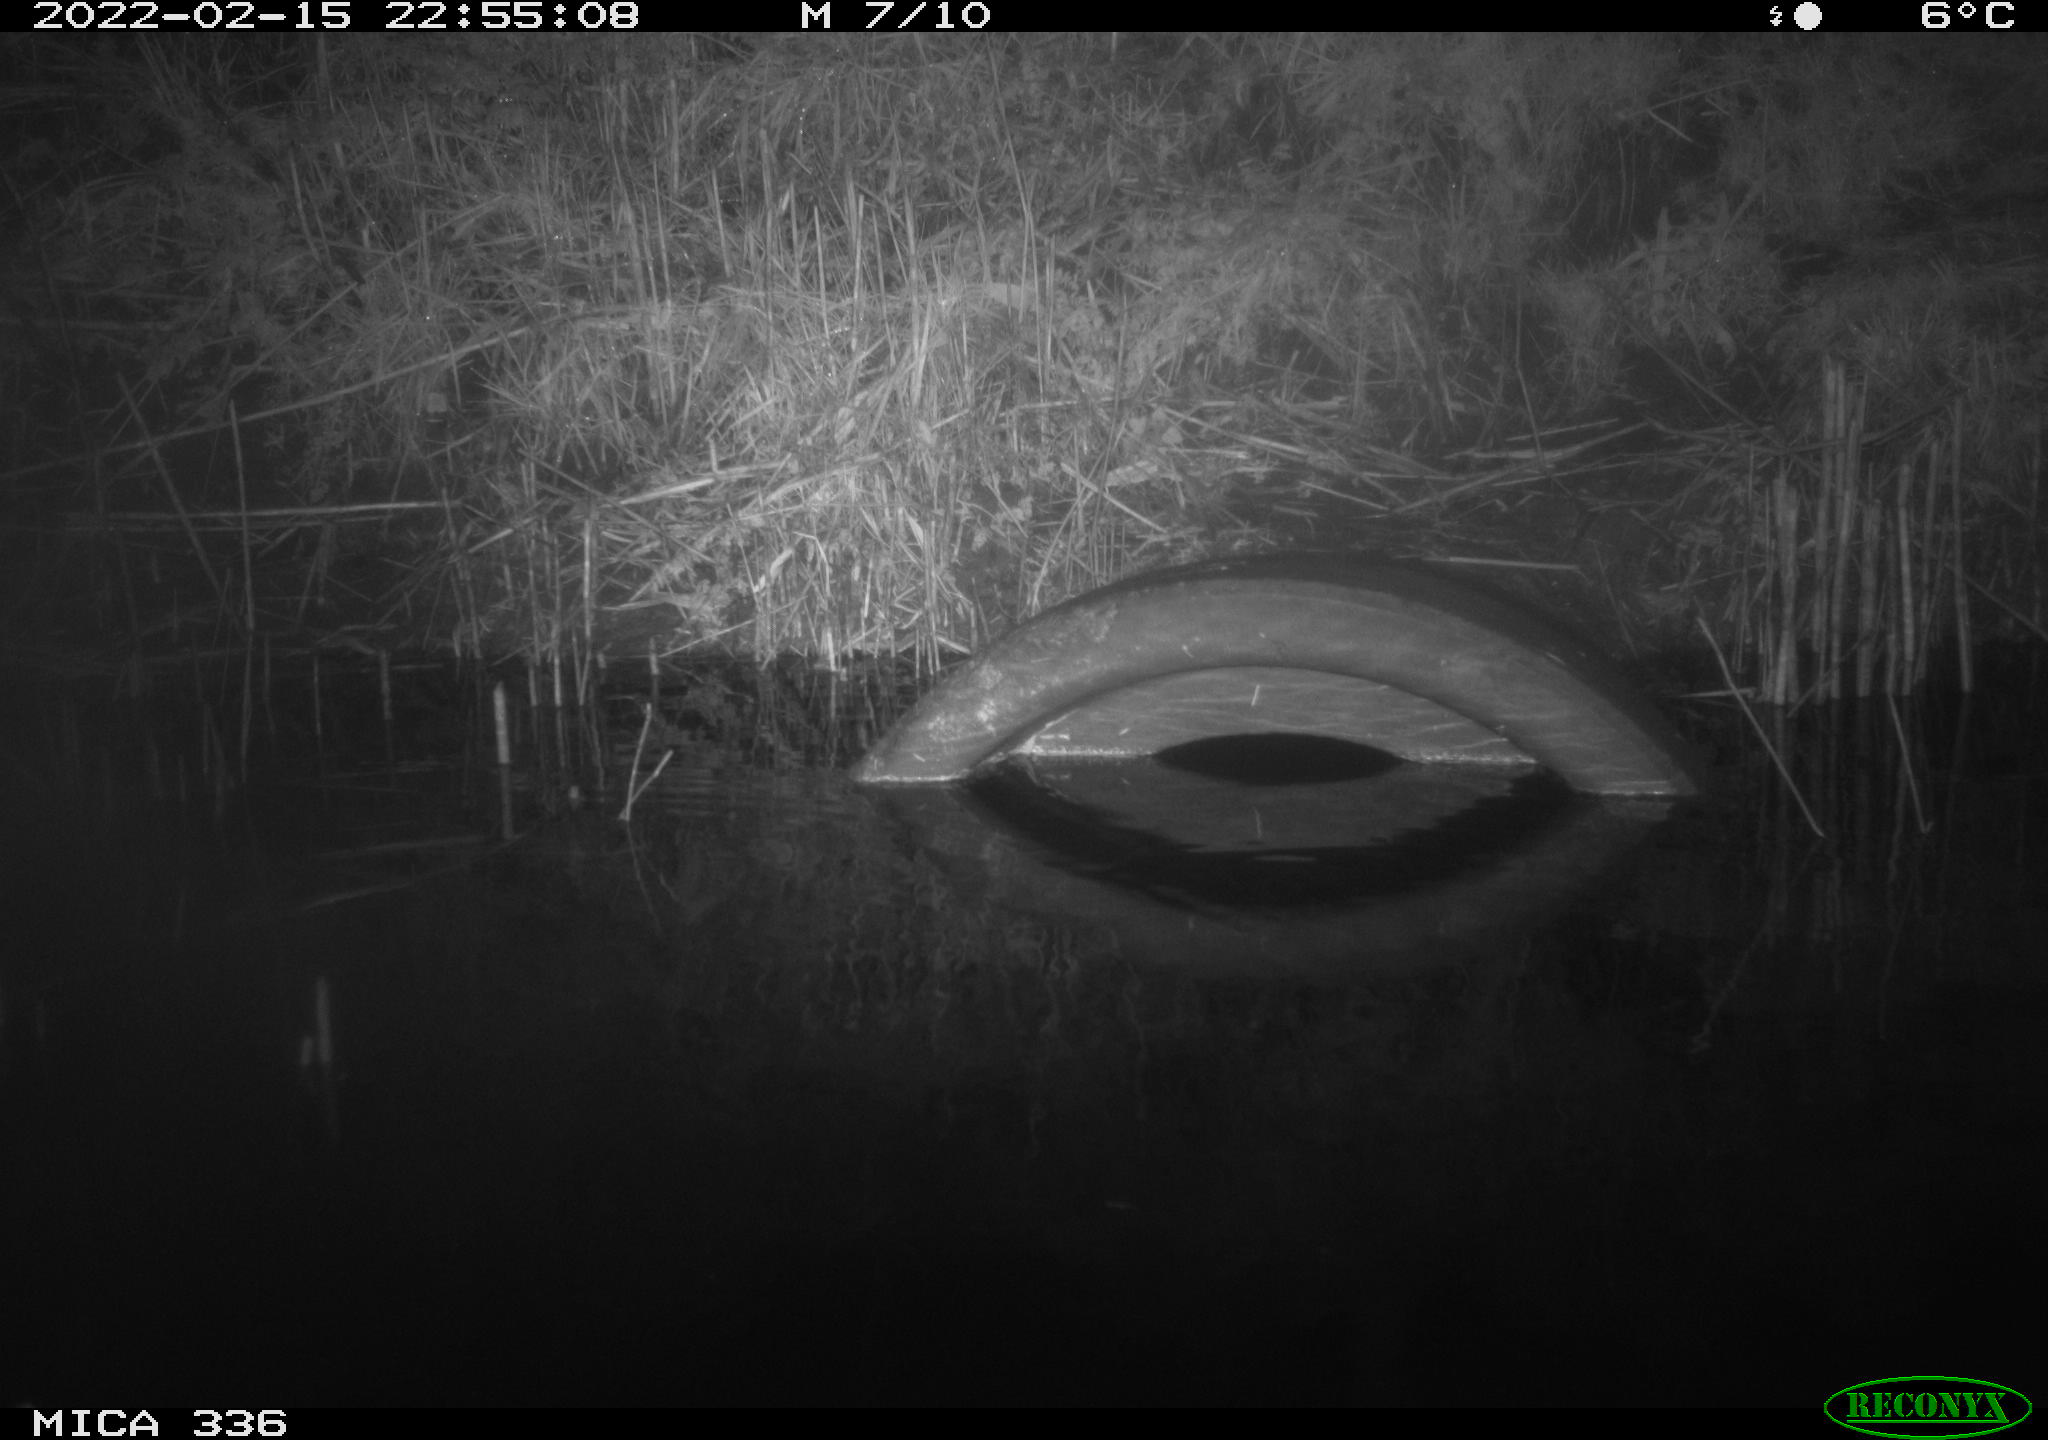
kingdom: Animalia
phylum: Chordata
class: Aves
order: Pelecaniformes
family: Ardeidae
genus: Ardea
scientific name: Ardea cinerea
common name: Grey heron
